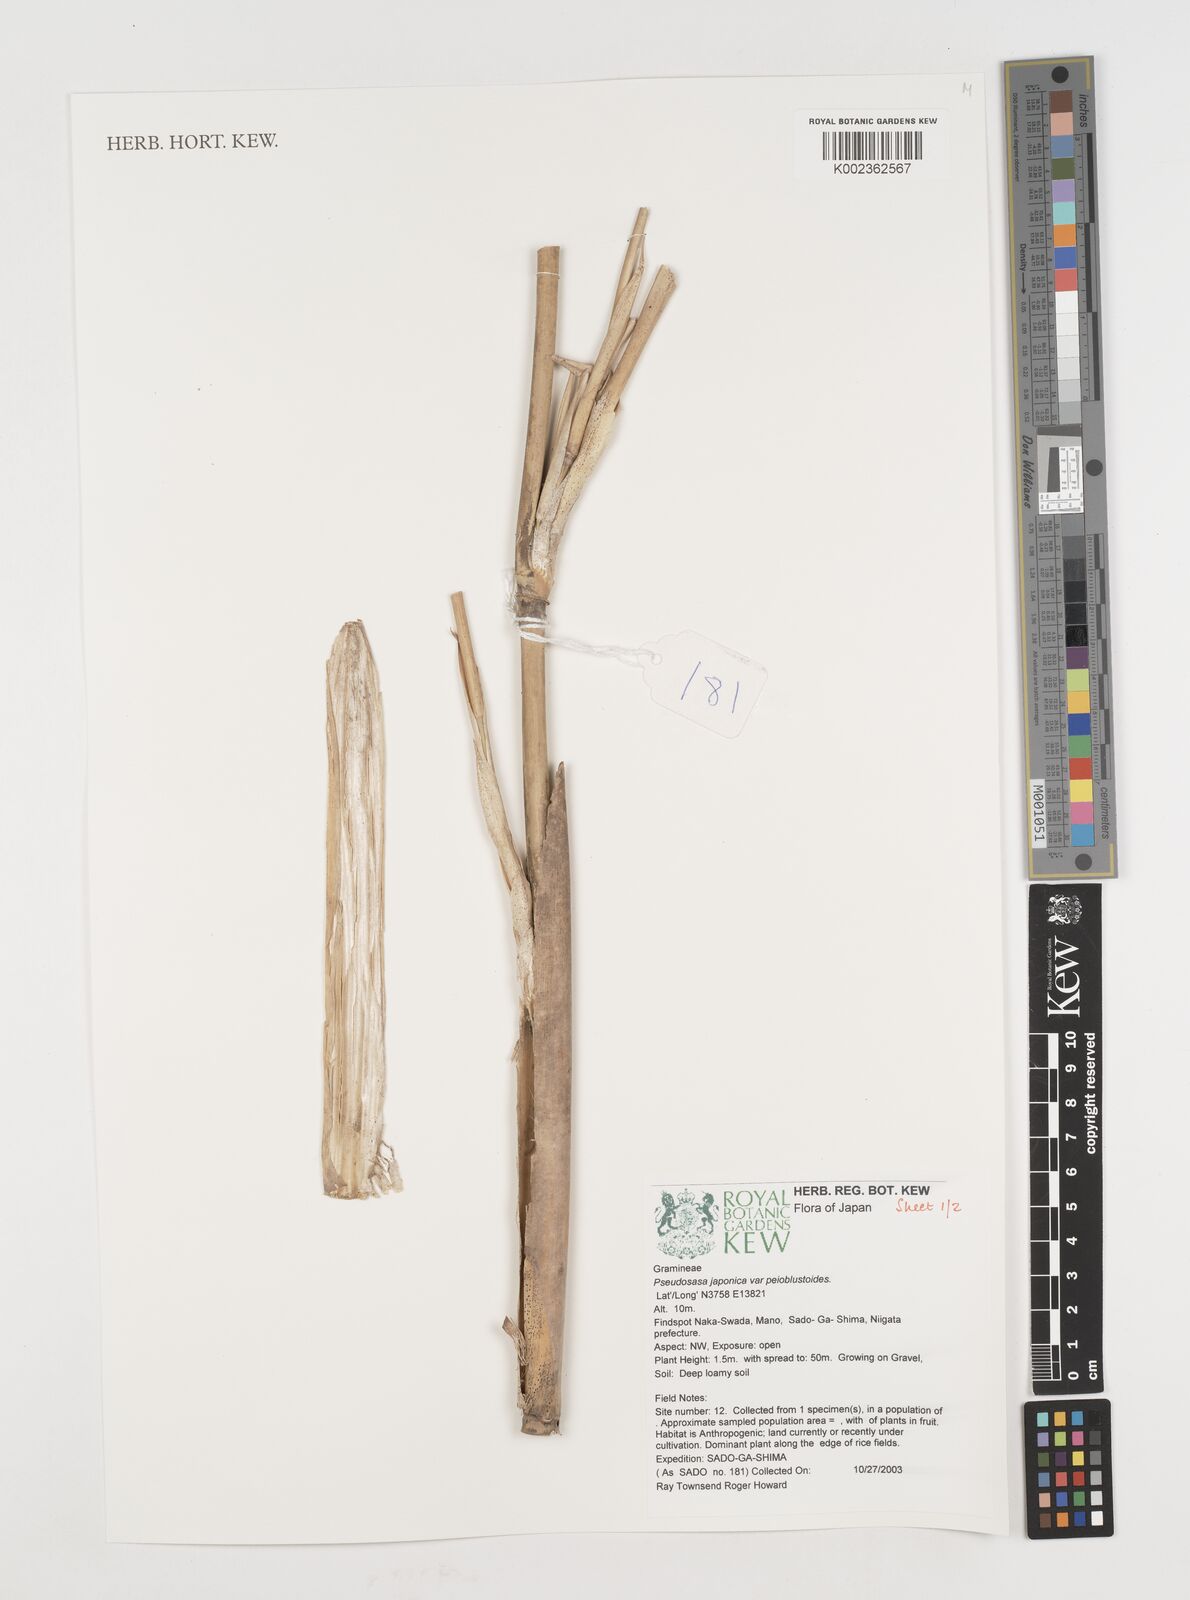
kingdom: Plantae
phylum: Tracheophyta
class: Liliopsida
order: Poales
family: Poaceae
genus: Pseudosasa
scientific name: Pseudosasa japonica
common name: Arrow bamboo
